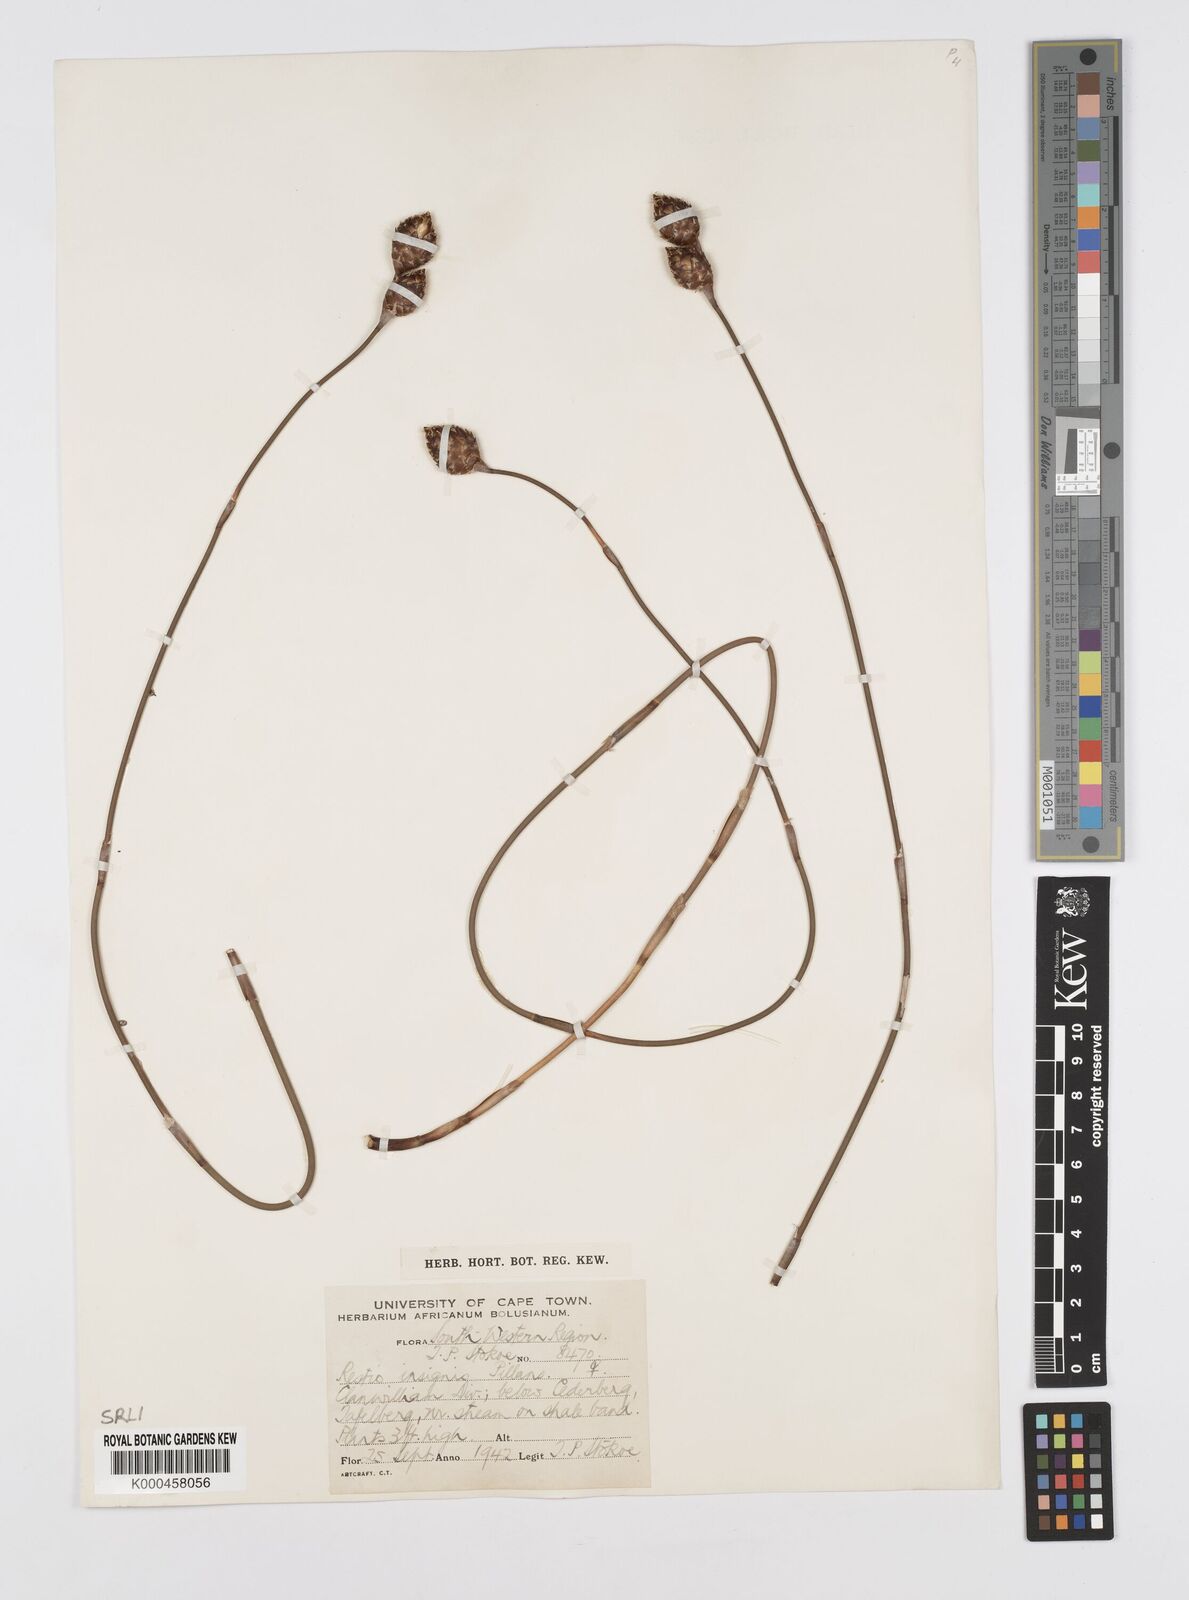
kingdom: Plantae
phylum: Tracheophyta
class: Liliopsida
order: Poales
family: Restionaceae
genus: Restio
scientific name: Restio insignis
